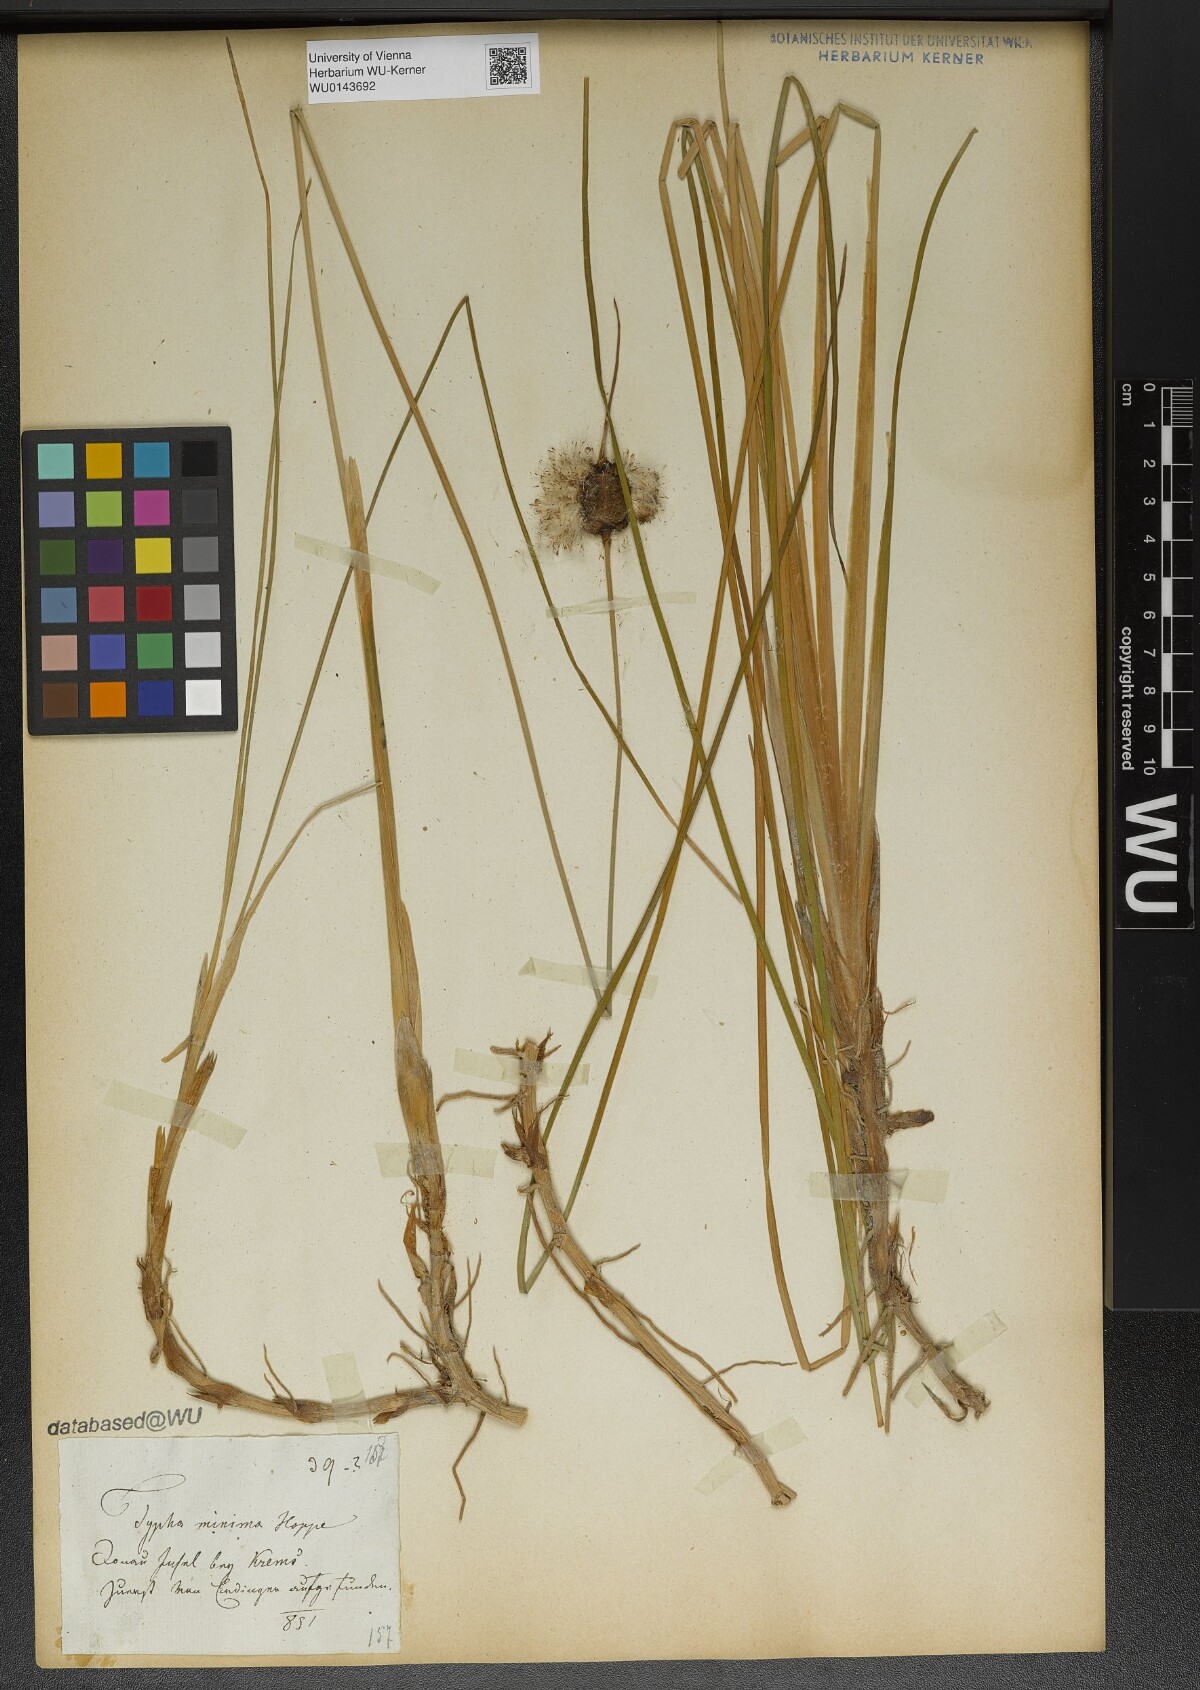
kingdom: Plantae
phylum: Tracheophyta
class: Liliopsida
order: Poales
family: Typhaceae
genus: Typha
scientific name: Typha minima
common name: Dwarf bulrush
